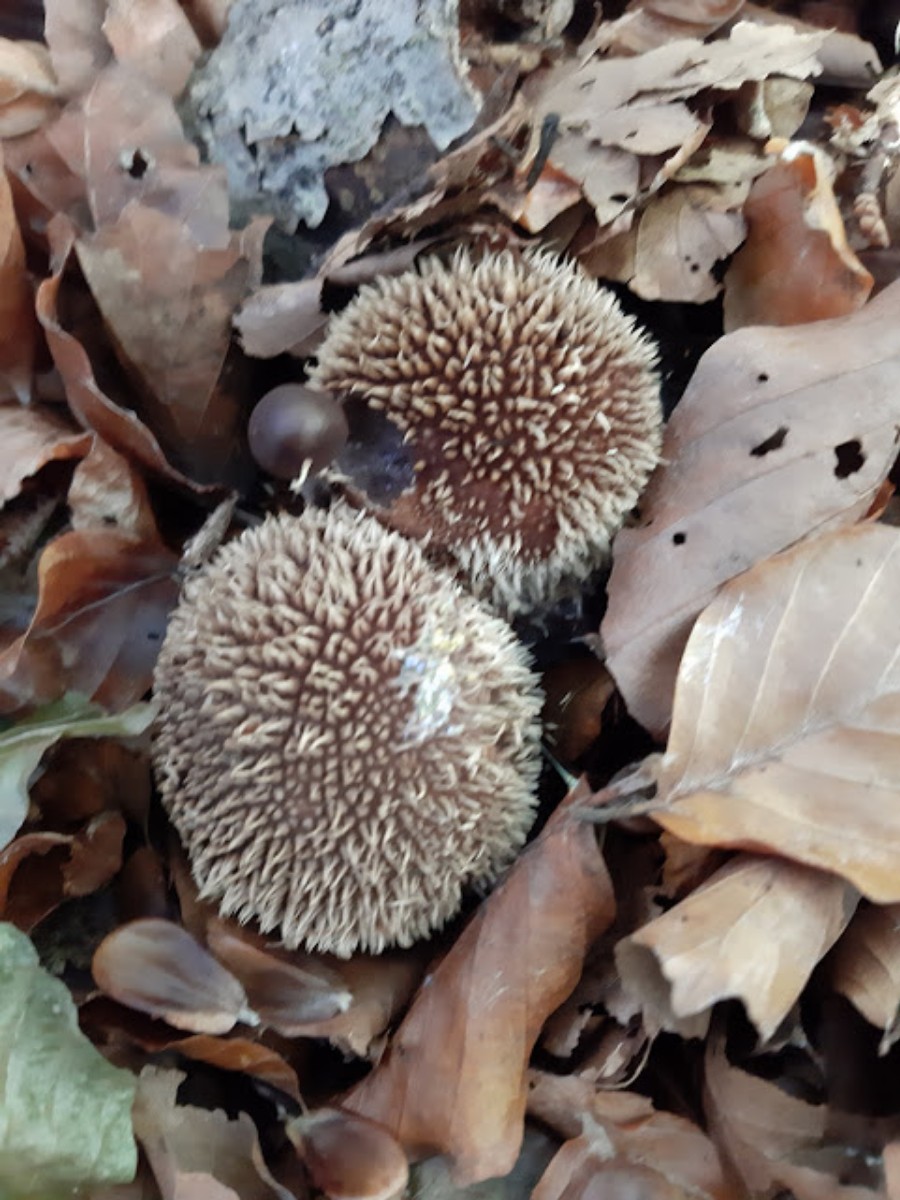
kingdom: Fungi
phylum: Basidiomycota
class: Agaricomycetes
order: Agaricales
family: Lycoperdaceae
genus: Lycoperdon
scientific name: Lycoperdon echinatum
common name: pindsvine-støvbold
